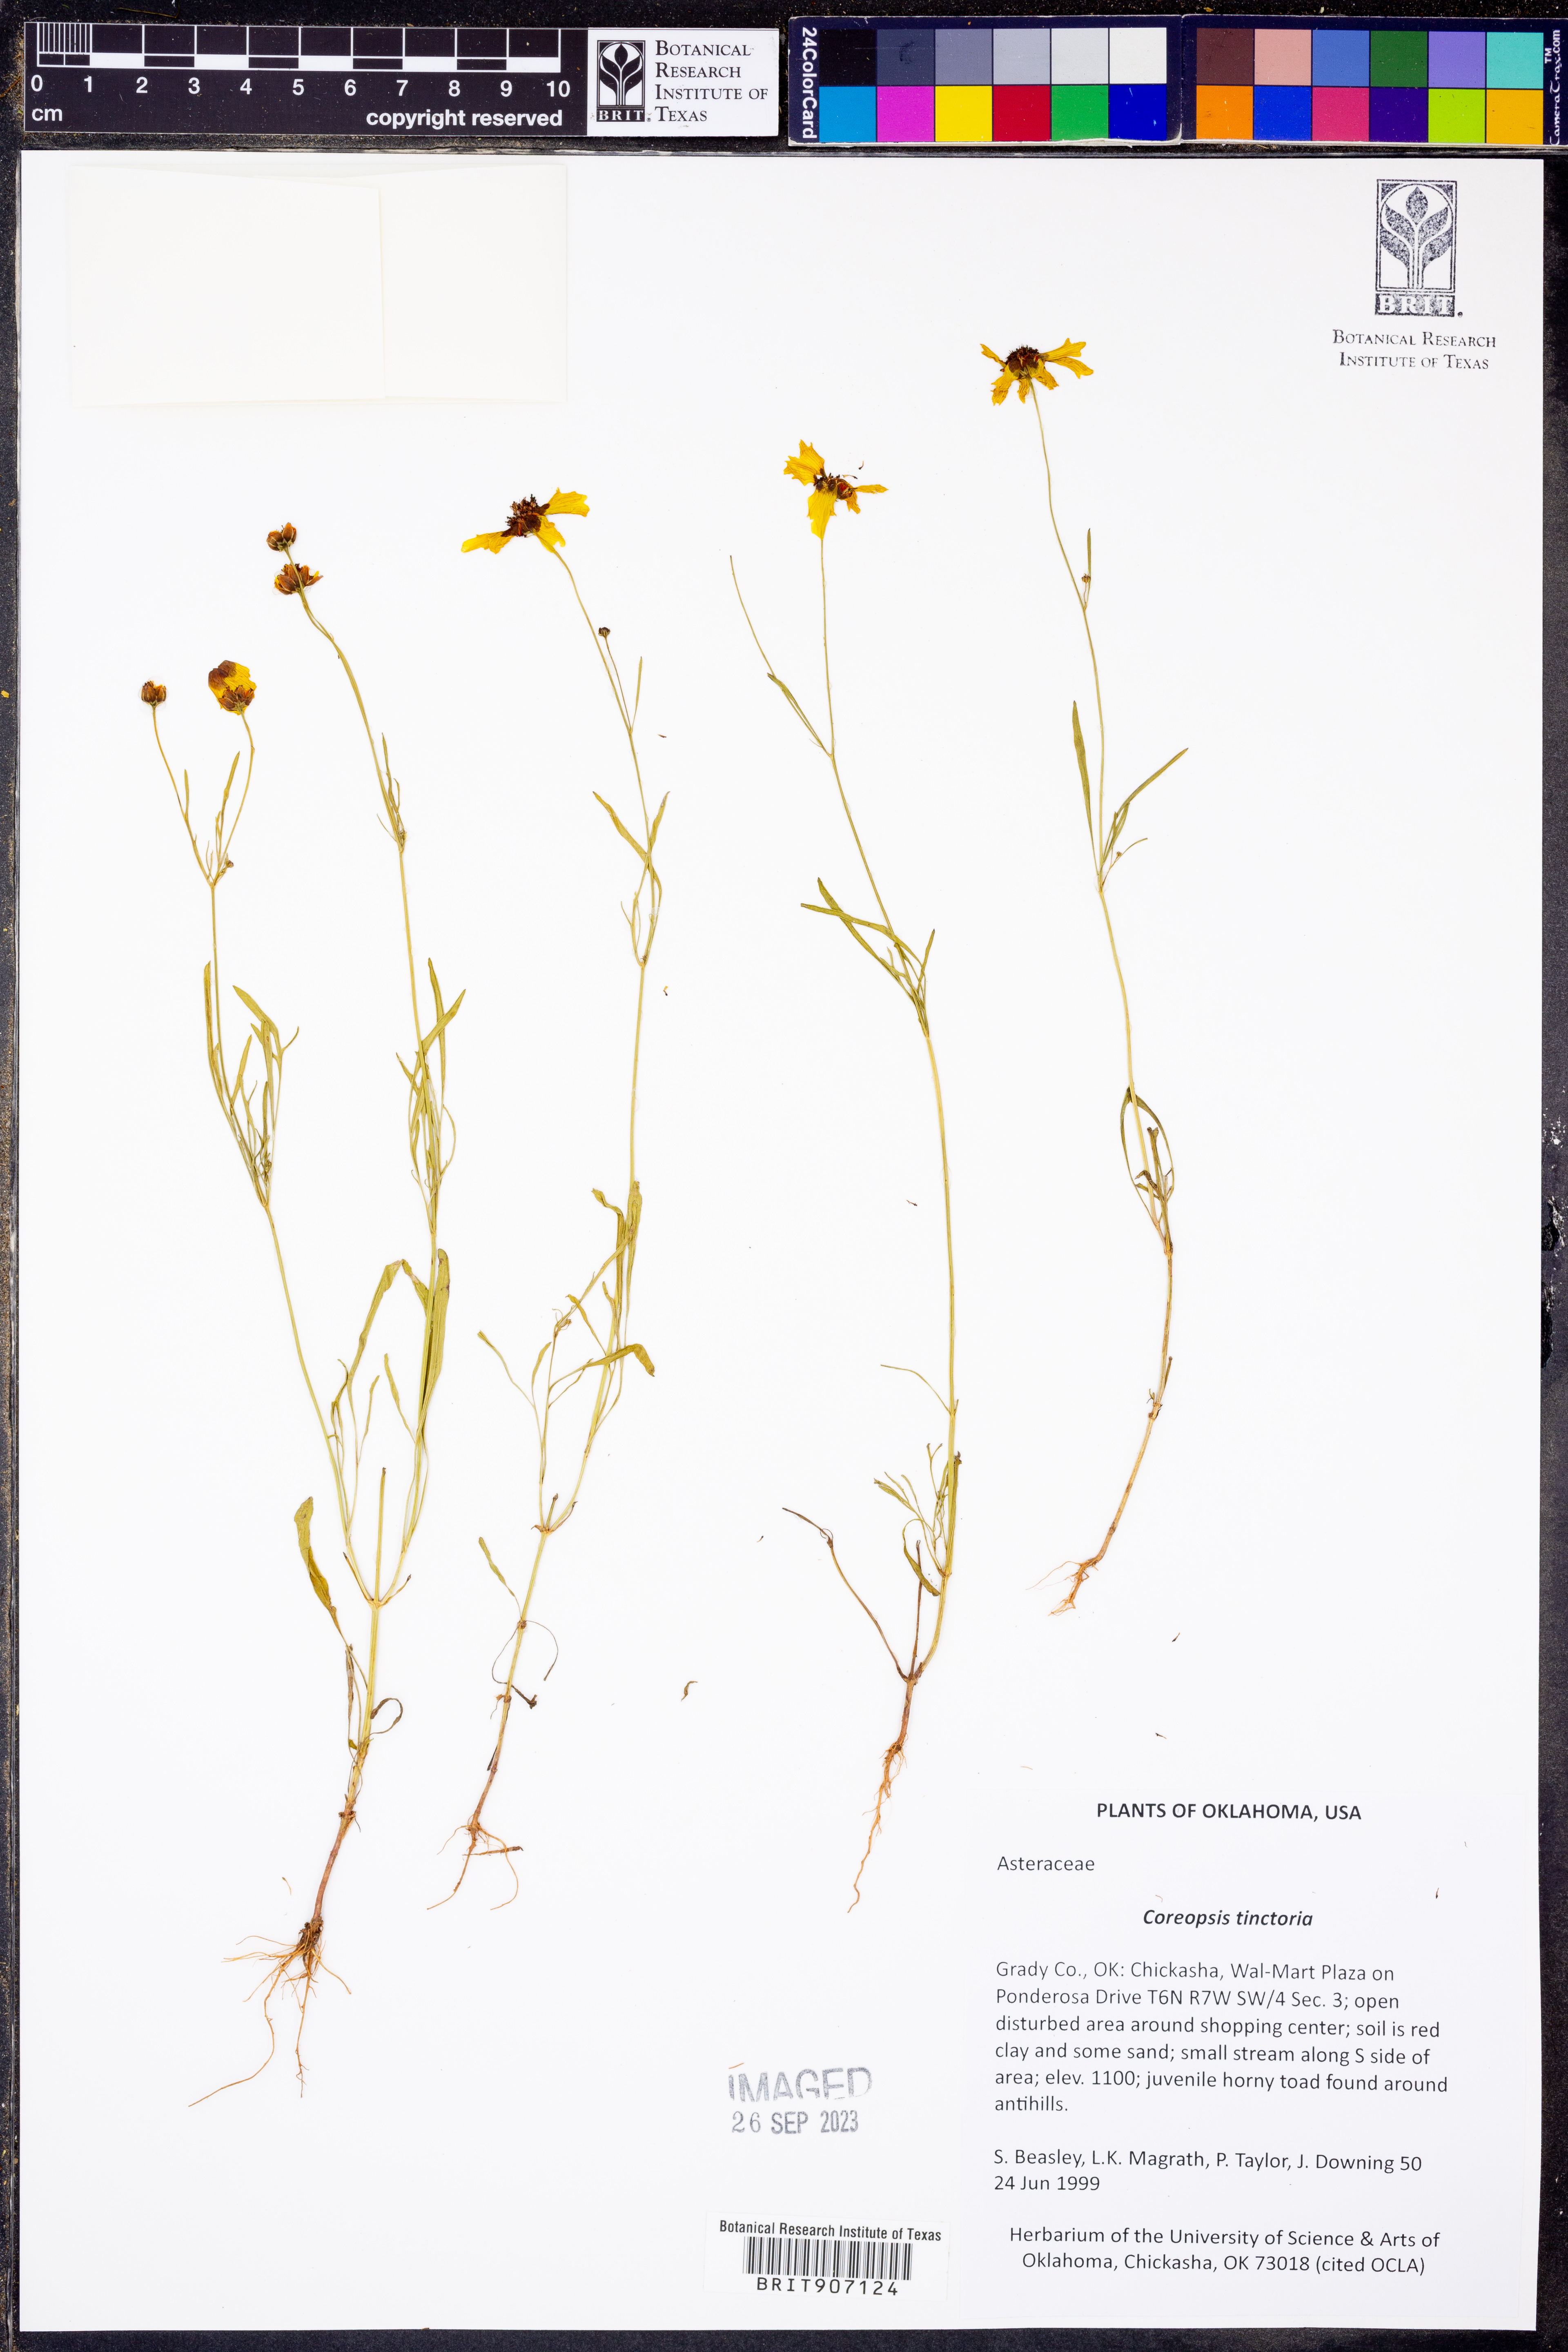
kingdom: Plantae
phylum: Tracheophyta
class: Magnoliopsida
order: Asterales
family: Asteraceae
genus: Coreopsis
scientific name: Coreopsis tinctoria
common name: Garden tickseed
